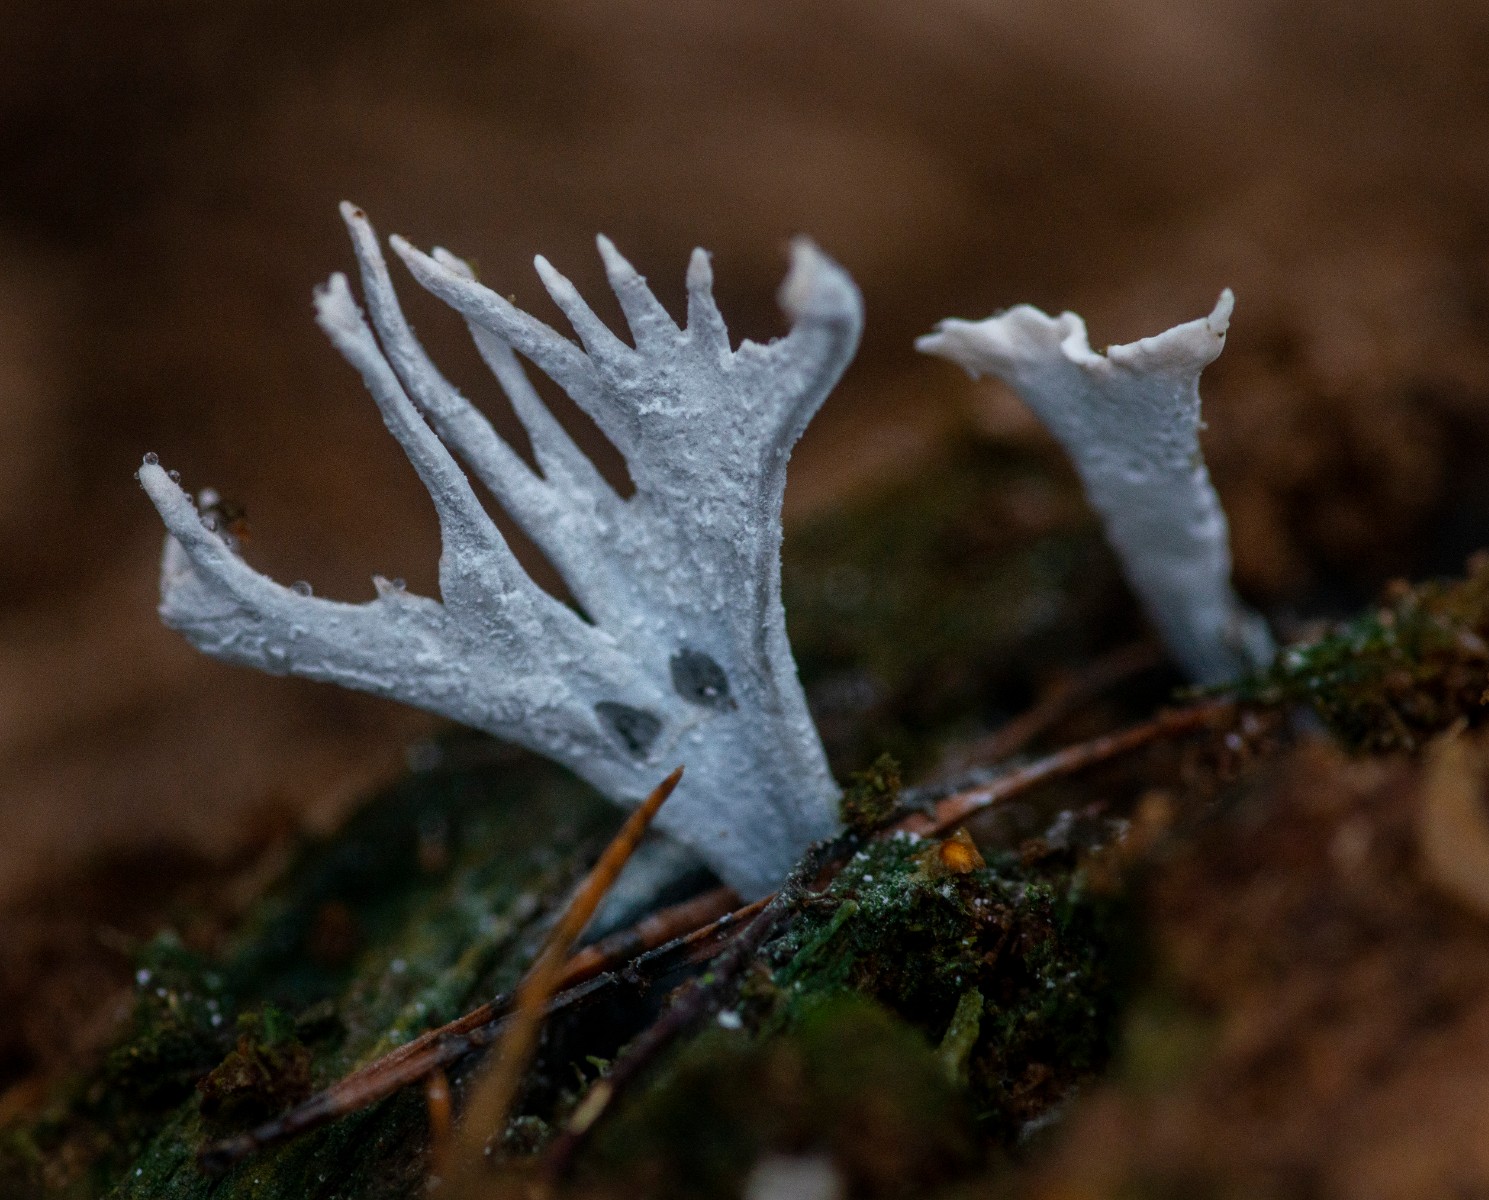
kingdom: Fungi
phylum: Ascomycota
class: Sordariomycetes
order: Xylariales
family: Xylariaceae
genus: Xylaria
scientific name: Xylaria hypoxylon
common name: grenet stødsvamp
